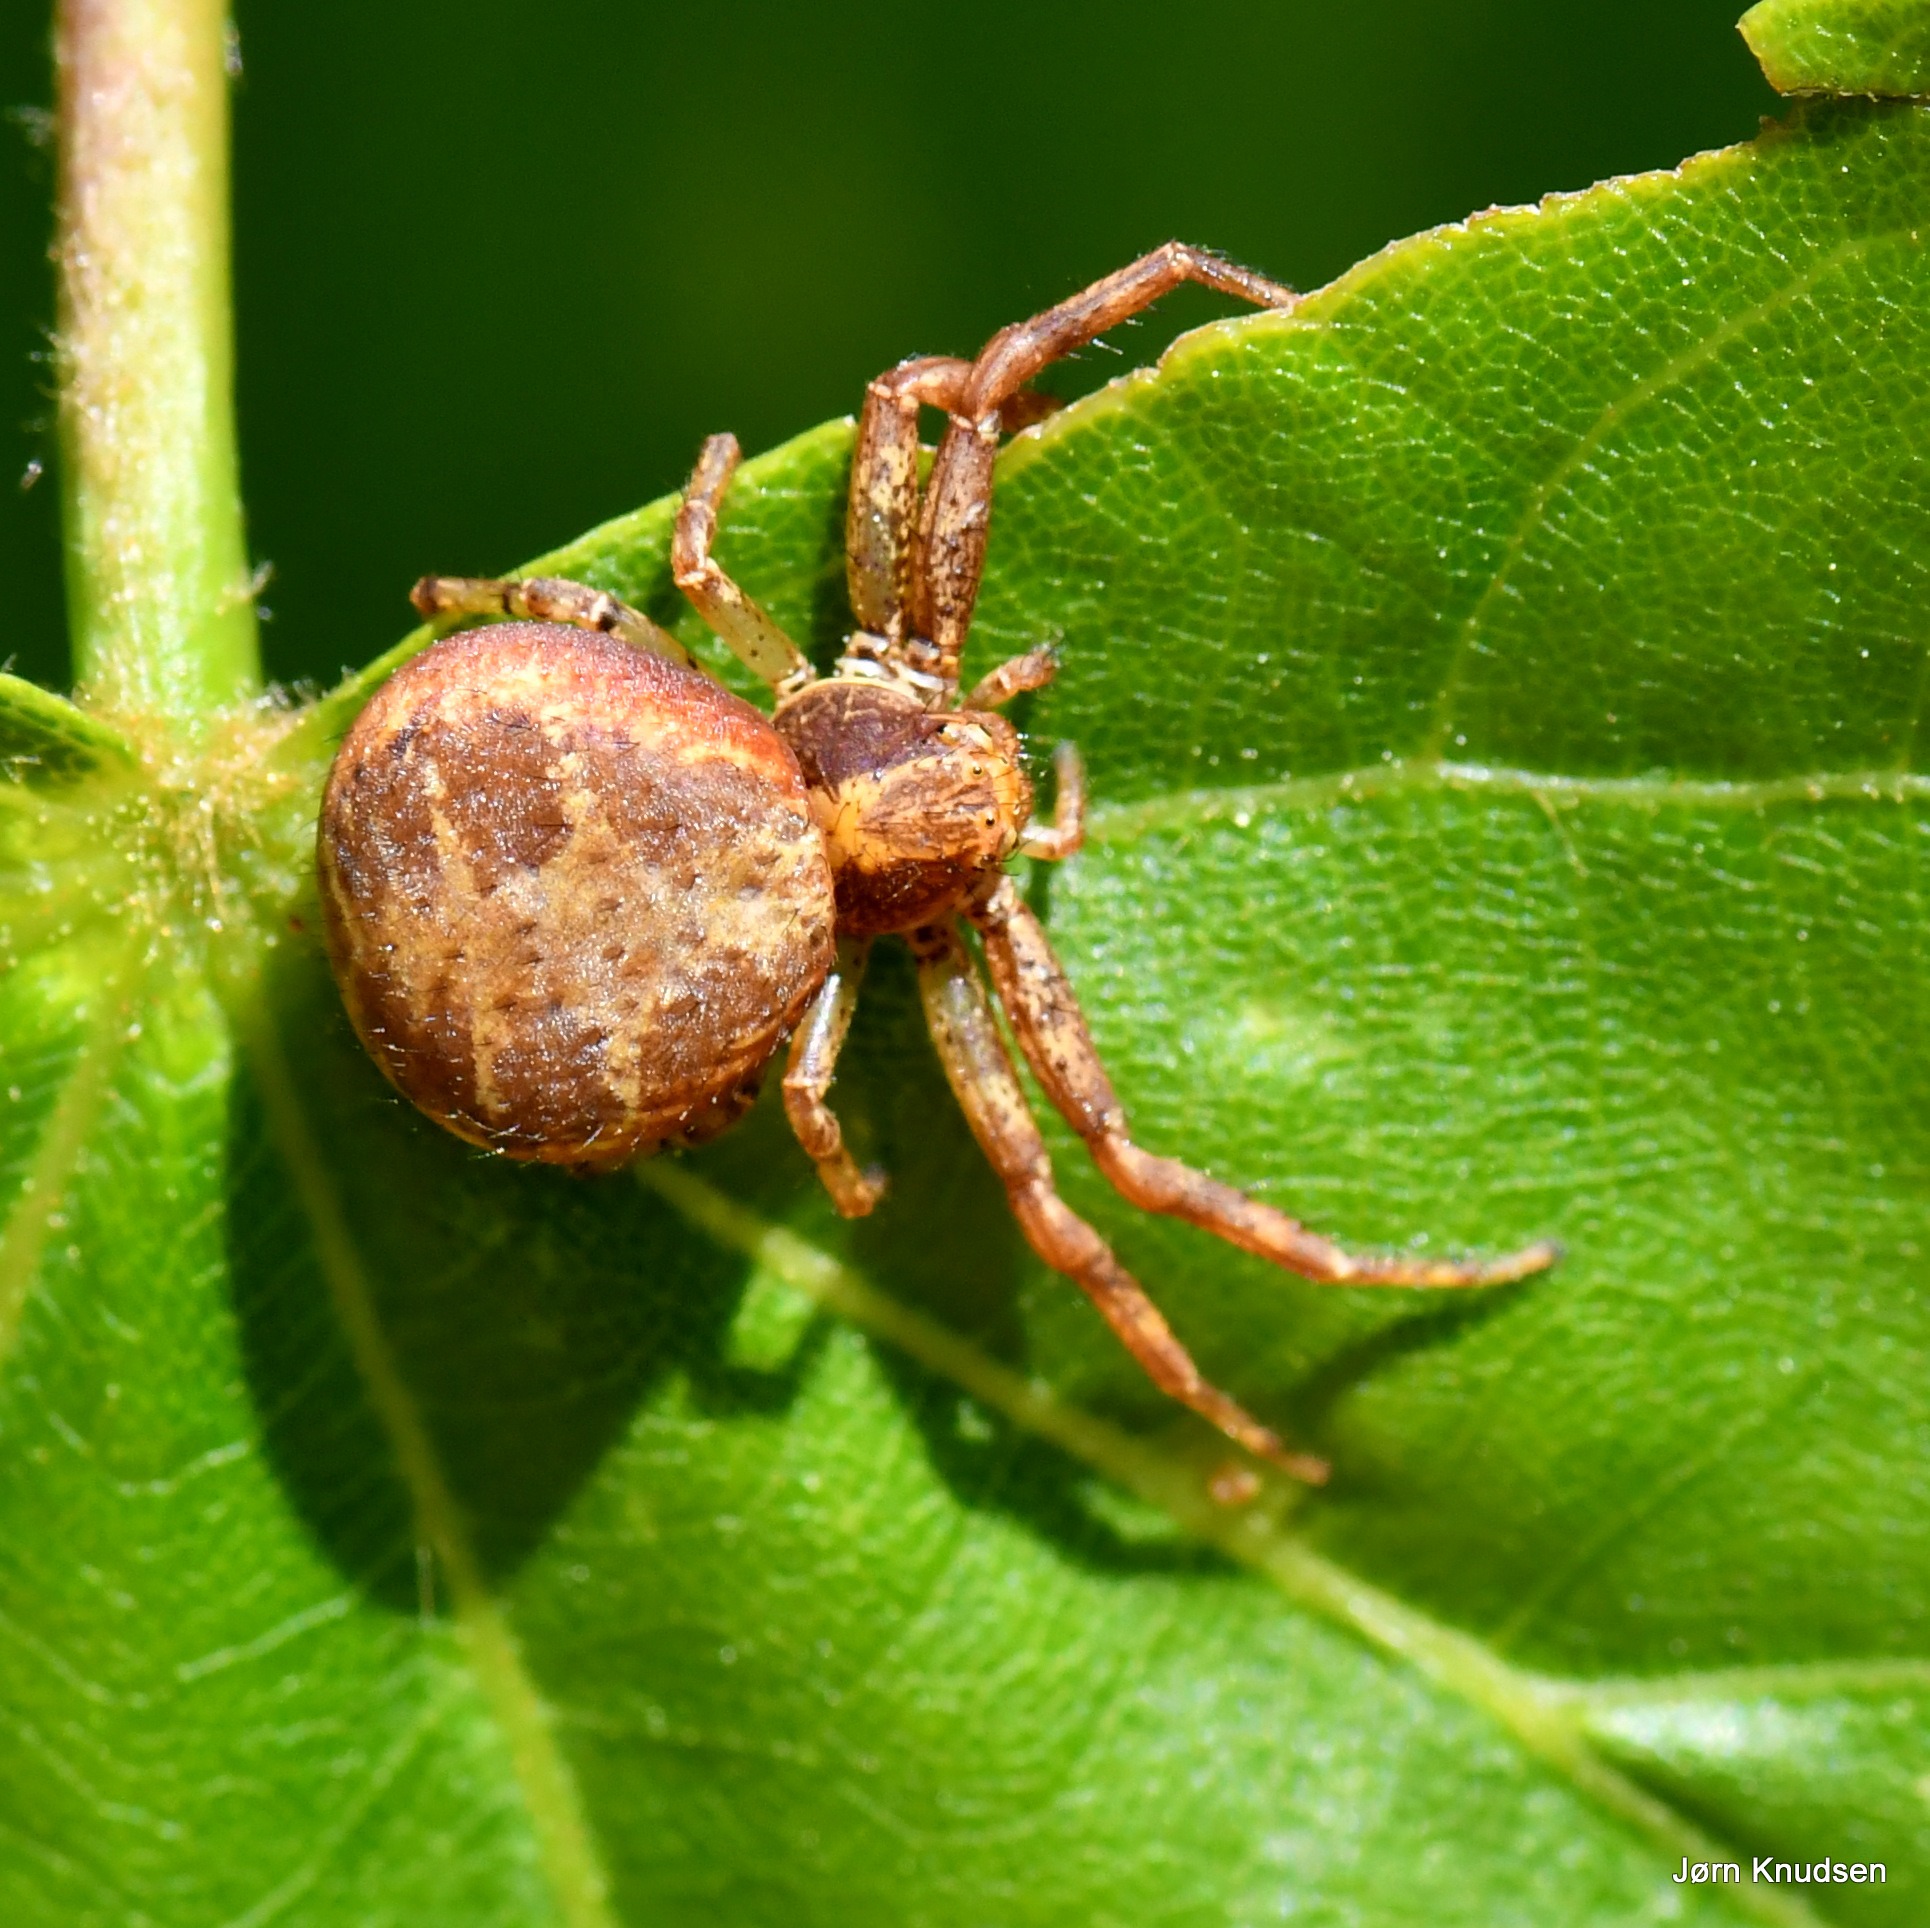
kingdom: Animalia
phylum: Arthropoda
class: Arachnida
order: Araneae
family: Thomisidae
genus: Xysticus
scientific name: Xysticus lanio
